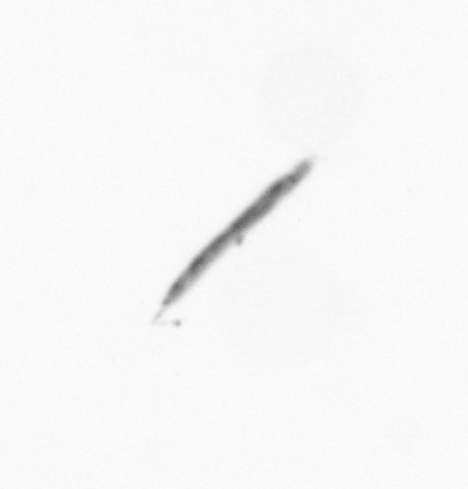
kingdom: Chromista
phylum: Ochrophyta
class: Bacillariophyceae
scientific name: Bacillariophyceae
